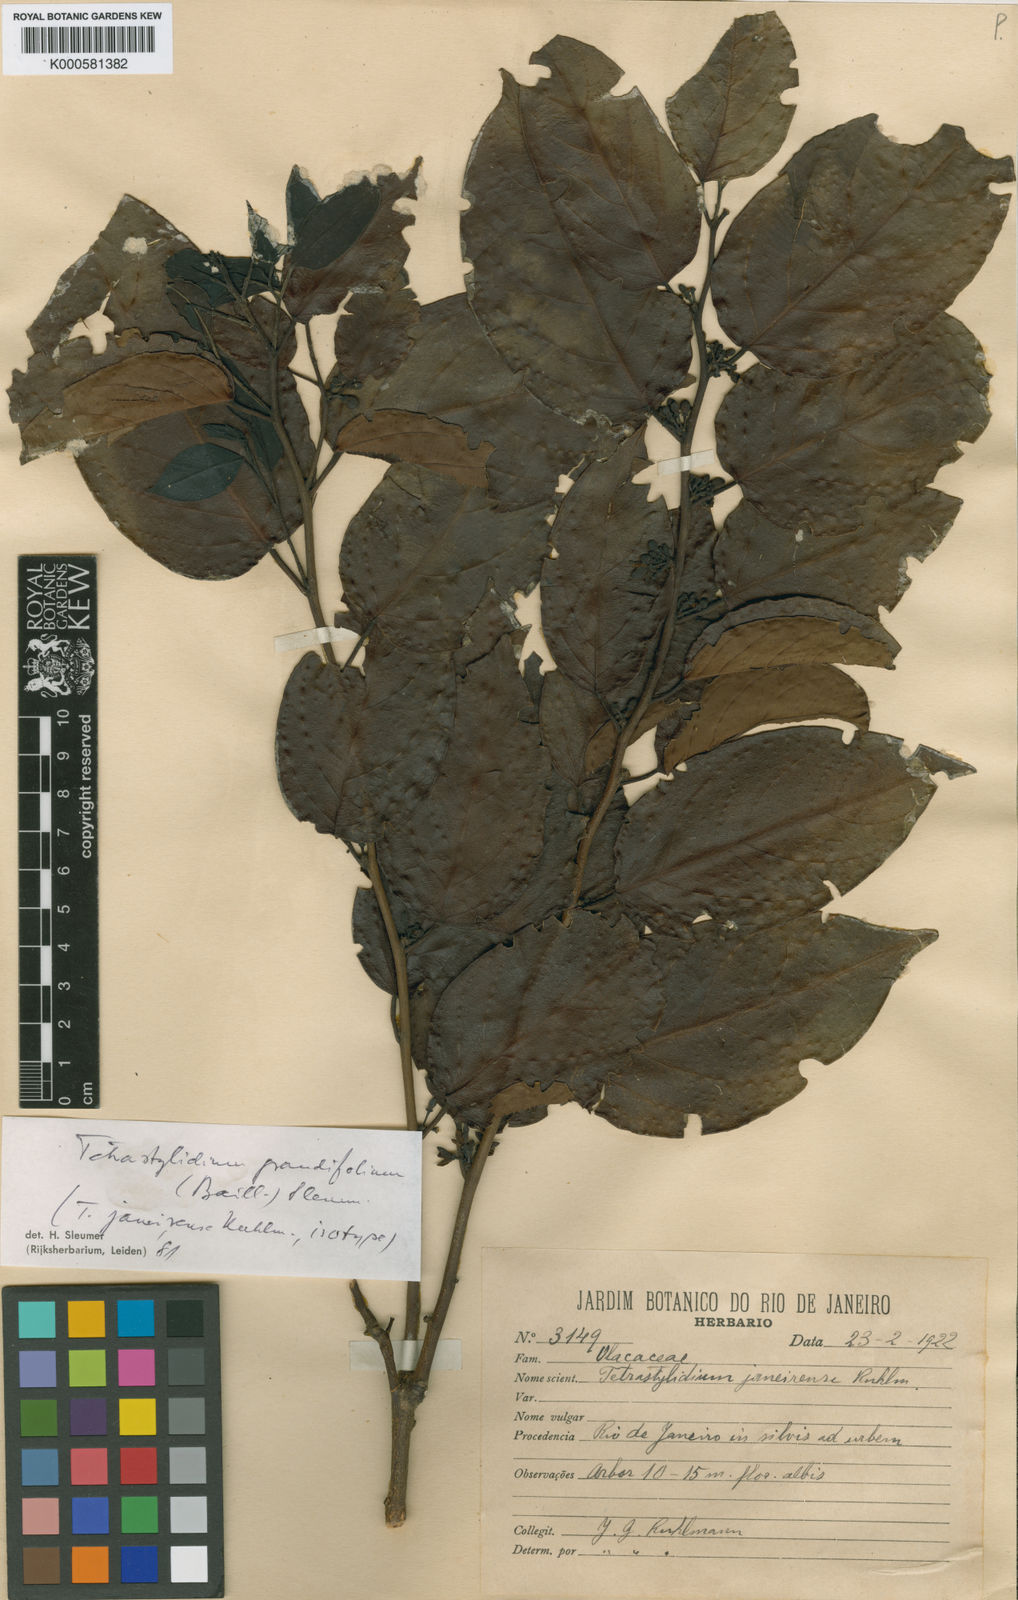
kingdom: Plantae
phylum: Tracheophyta
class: Magnoliopsida
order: Santalales
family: Strombosiaceae
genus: Tetrastylidium
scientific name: Tetrastylidium grandifolium
